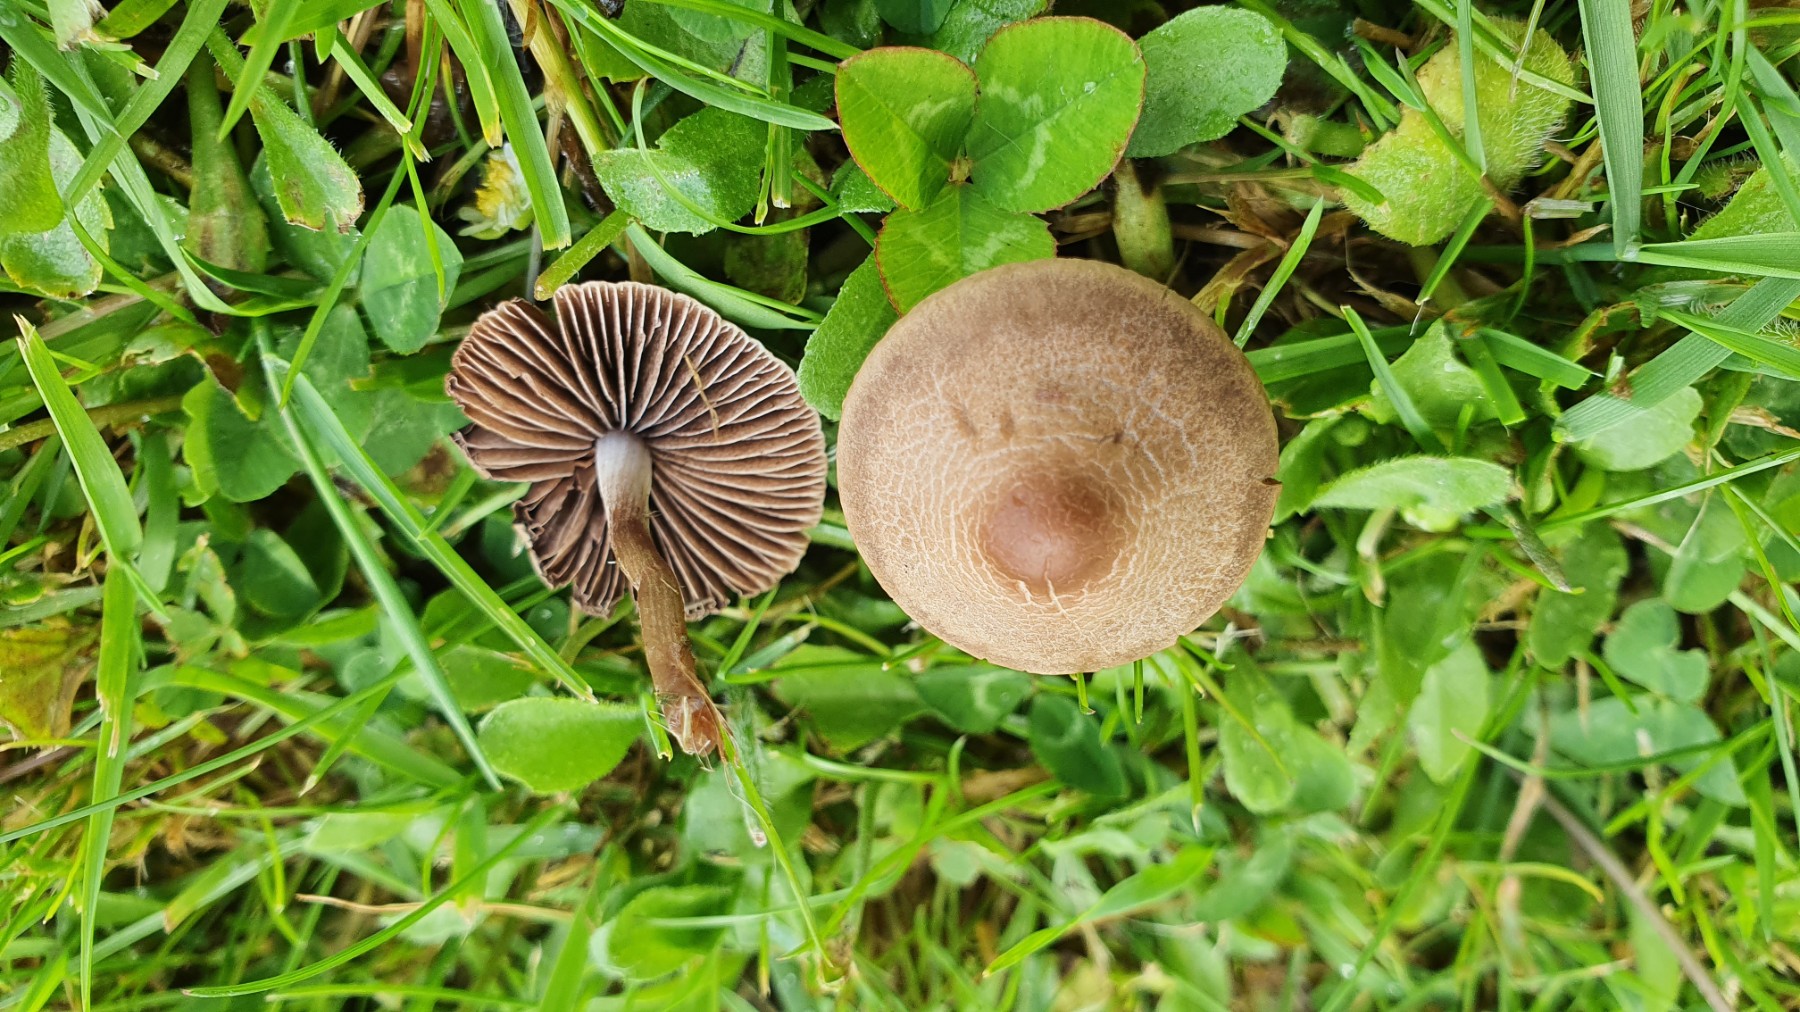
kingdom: Fungi
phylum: Basidiomycota
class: Agaricomycetes
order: Agaricales
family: Bolbitiaceae
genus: Panaeolina
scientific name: Panaeolina foenisecii
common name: høslætsvamp
